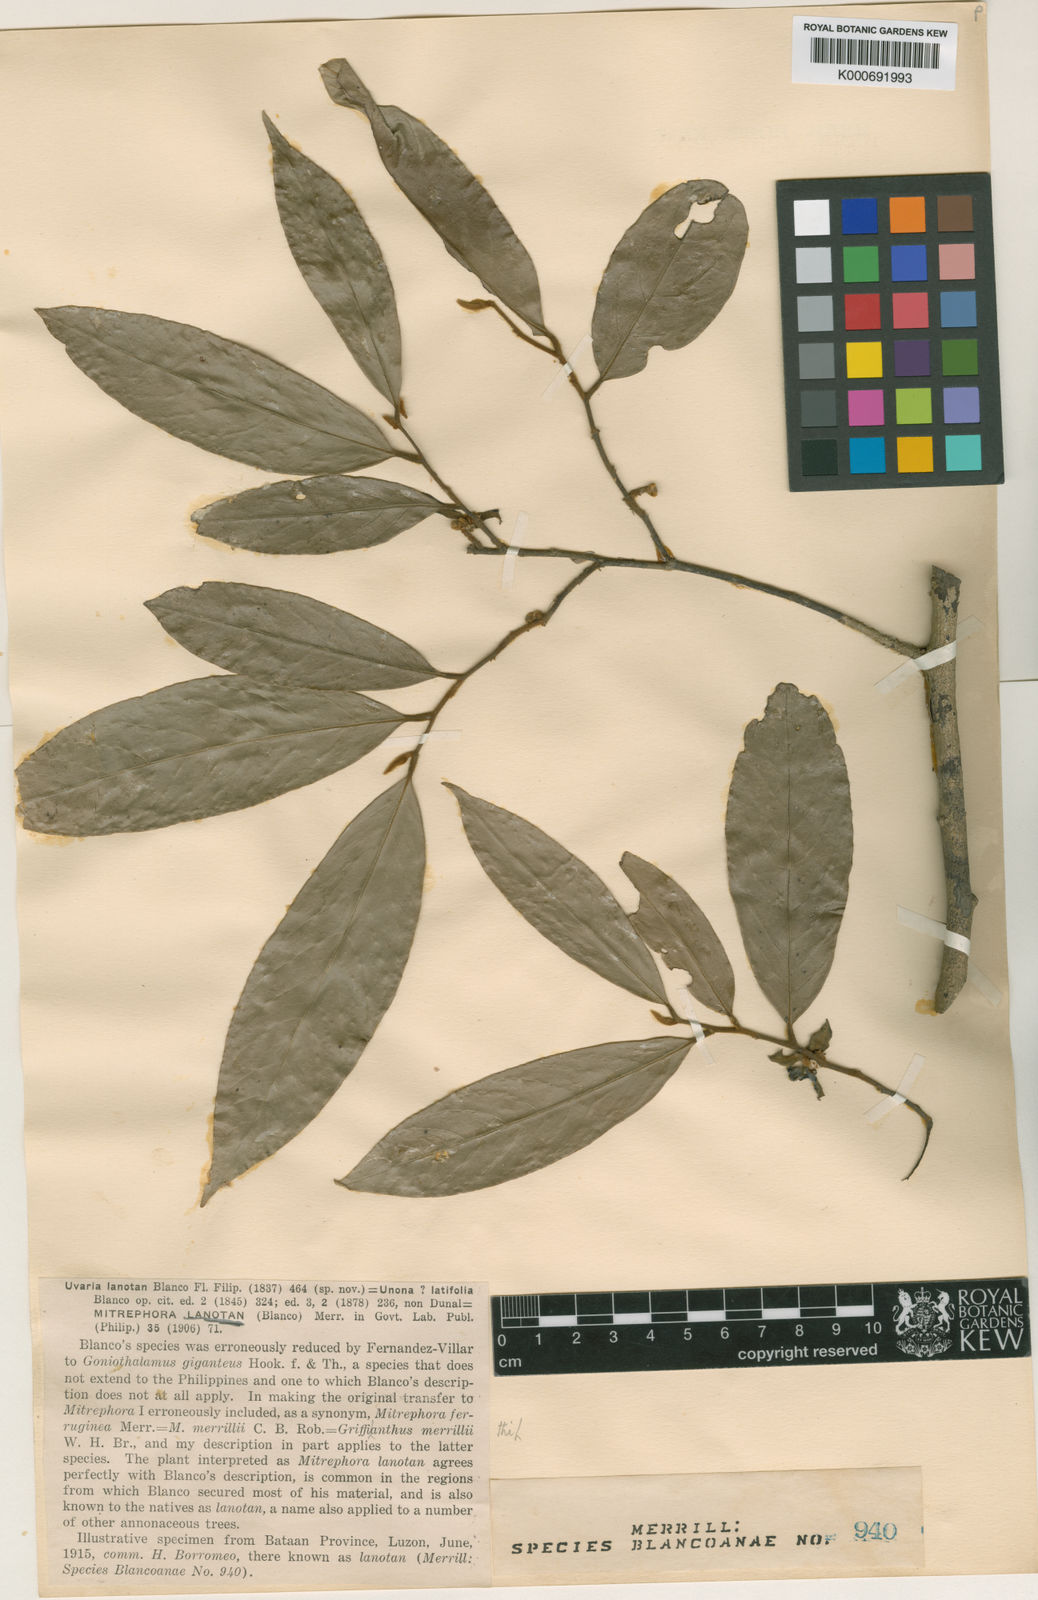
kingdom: Plantae
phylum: Tracheophyta
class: Magnoliopsida
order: Magnoliales
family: Annonaceae
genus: Mitrephora
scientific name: Mitrephora lanotan
